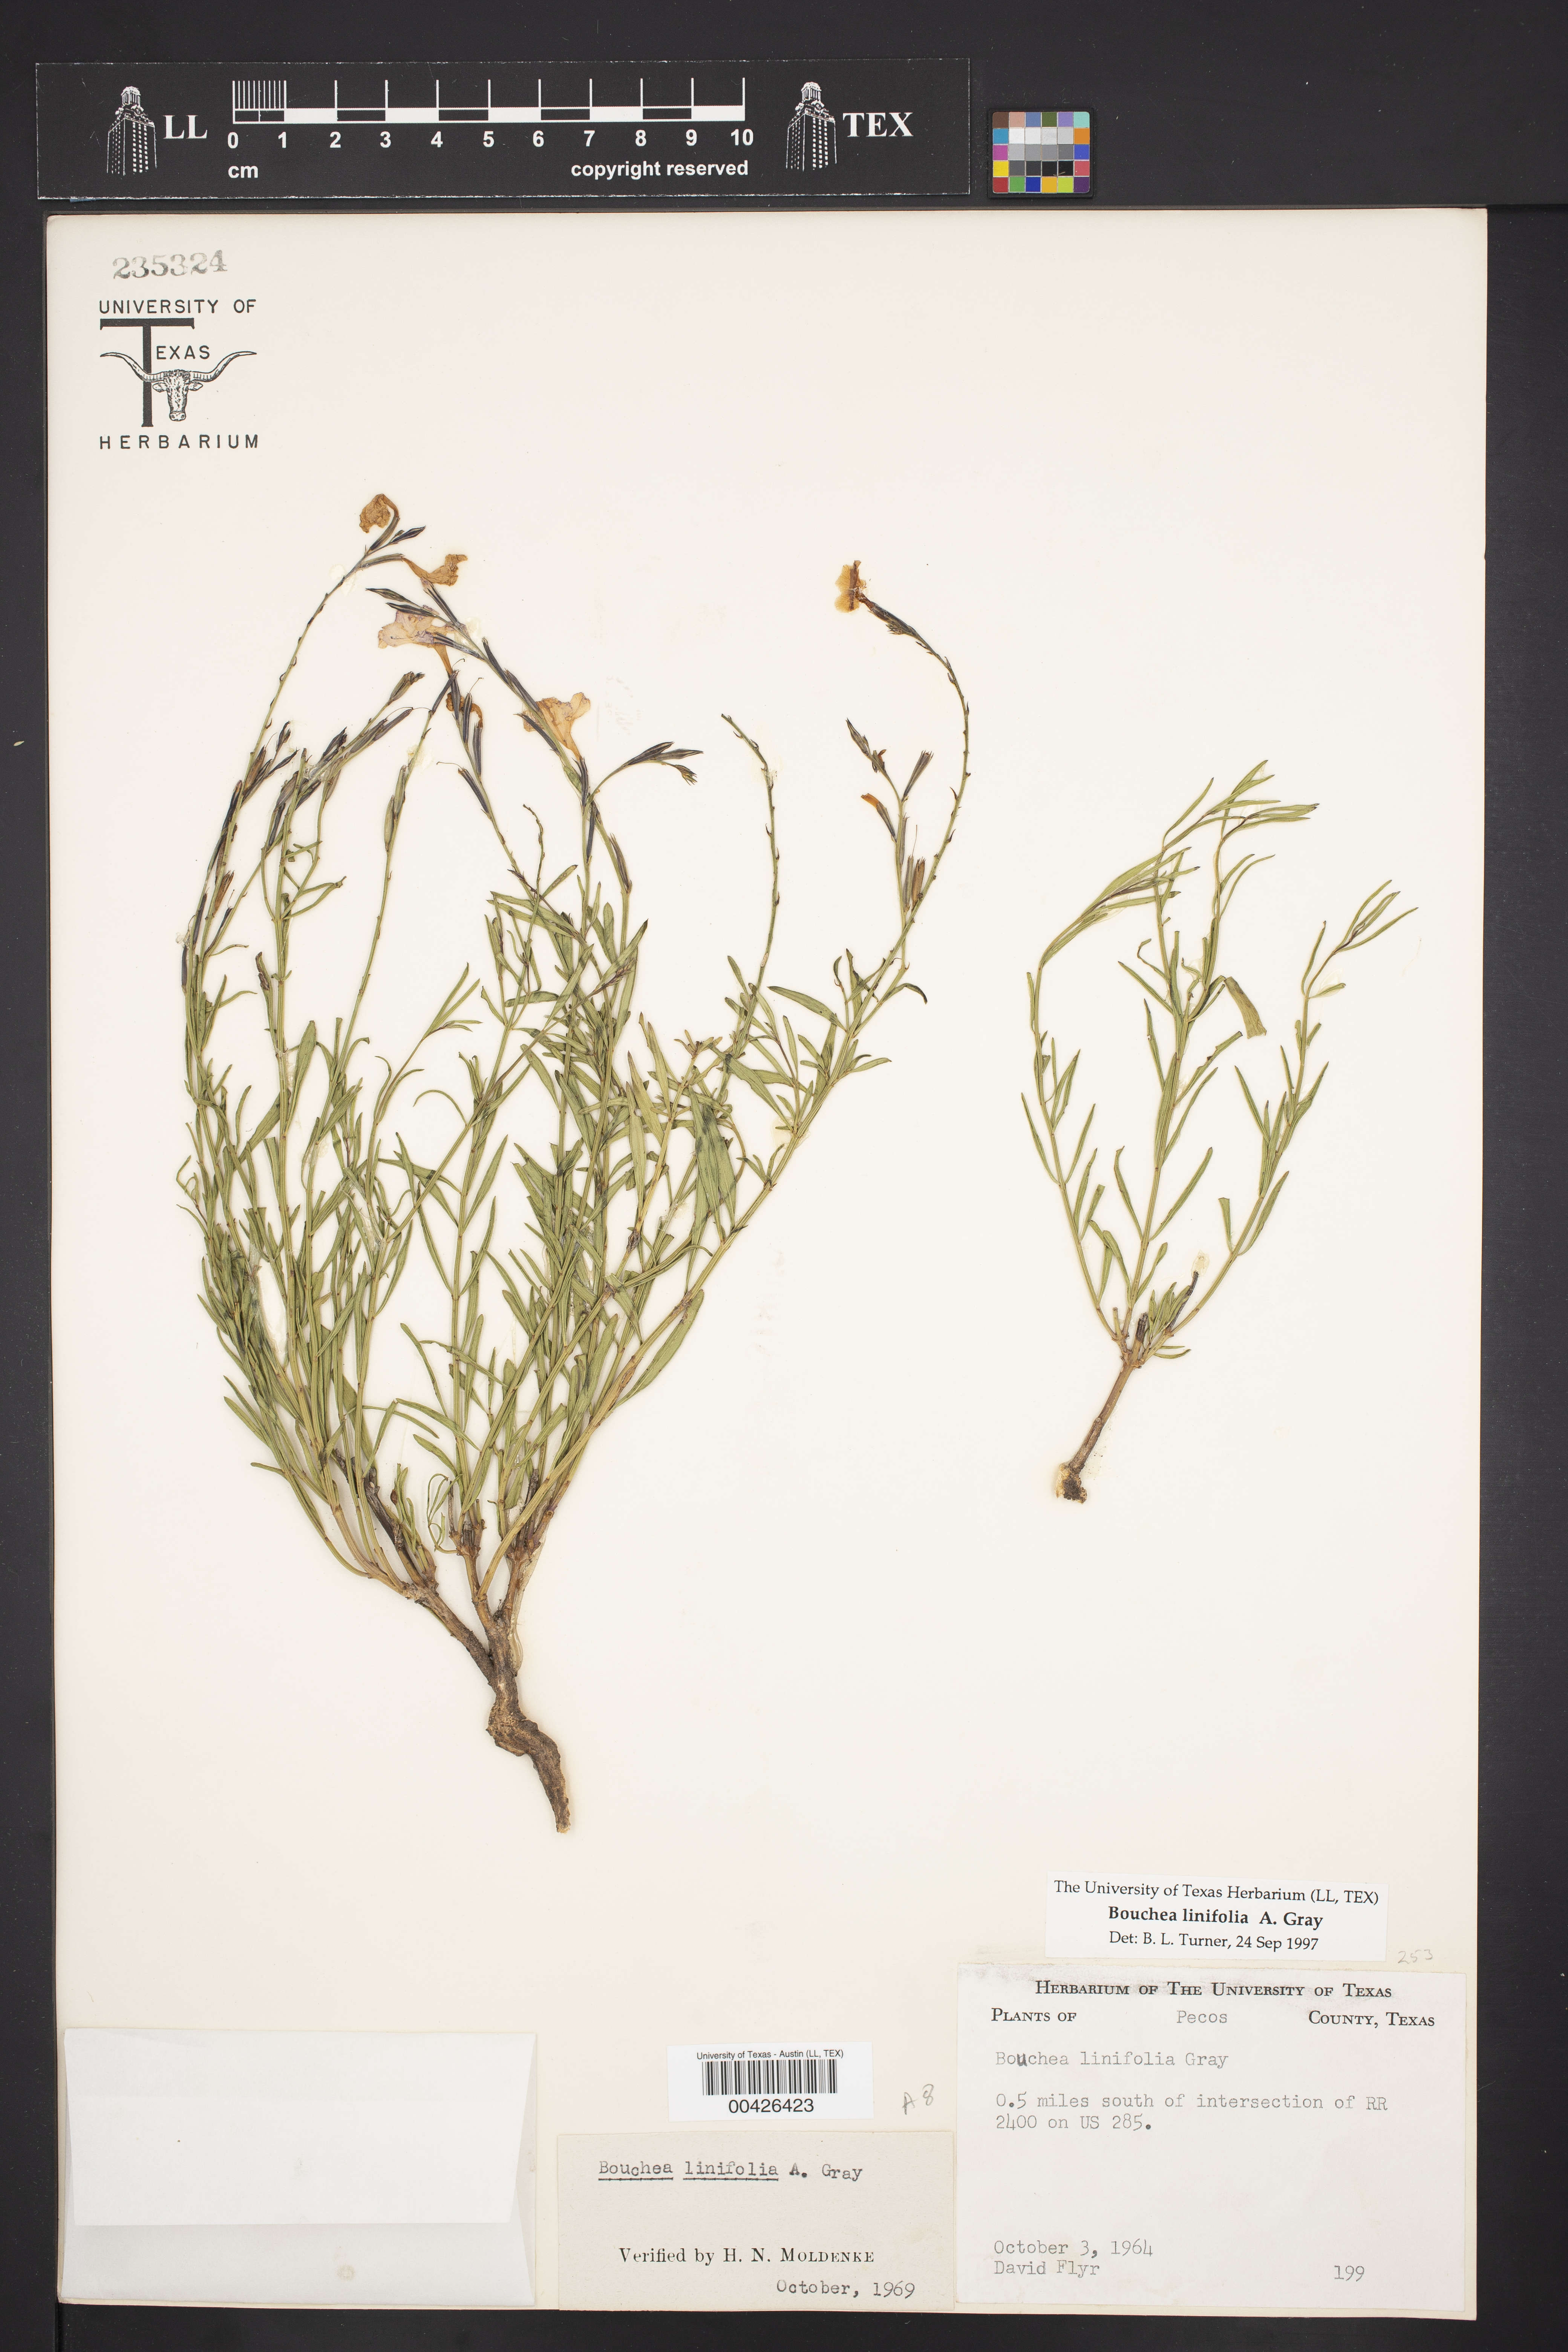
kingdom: Plantae
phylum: Tracheophyta
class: Magnoliopsida
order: Lamiales
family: Verbenaceae
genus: Bouchea
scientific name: Bouchea linifolia
